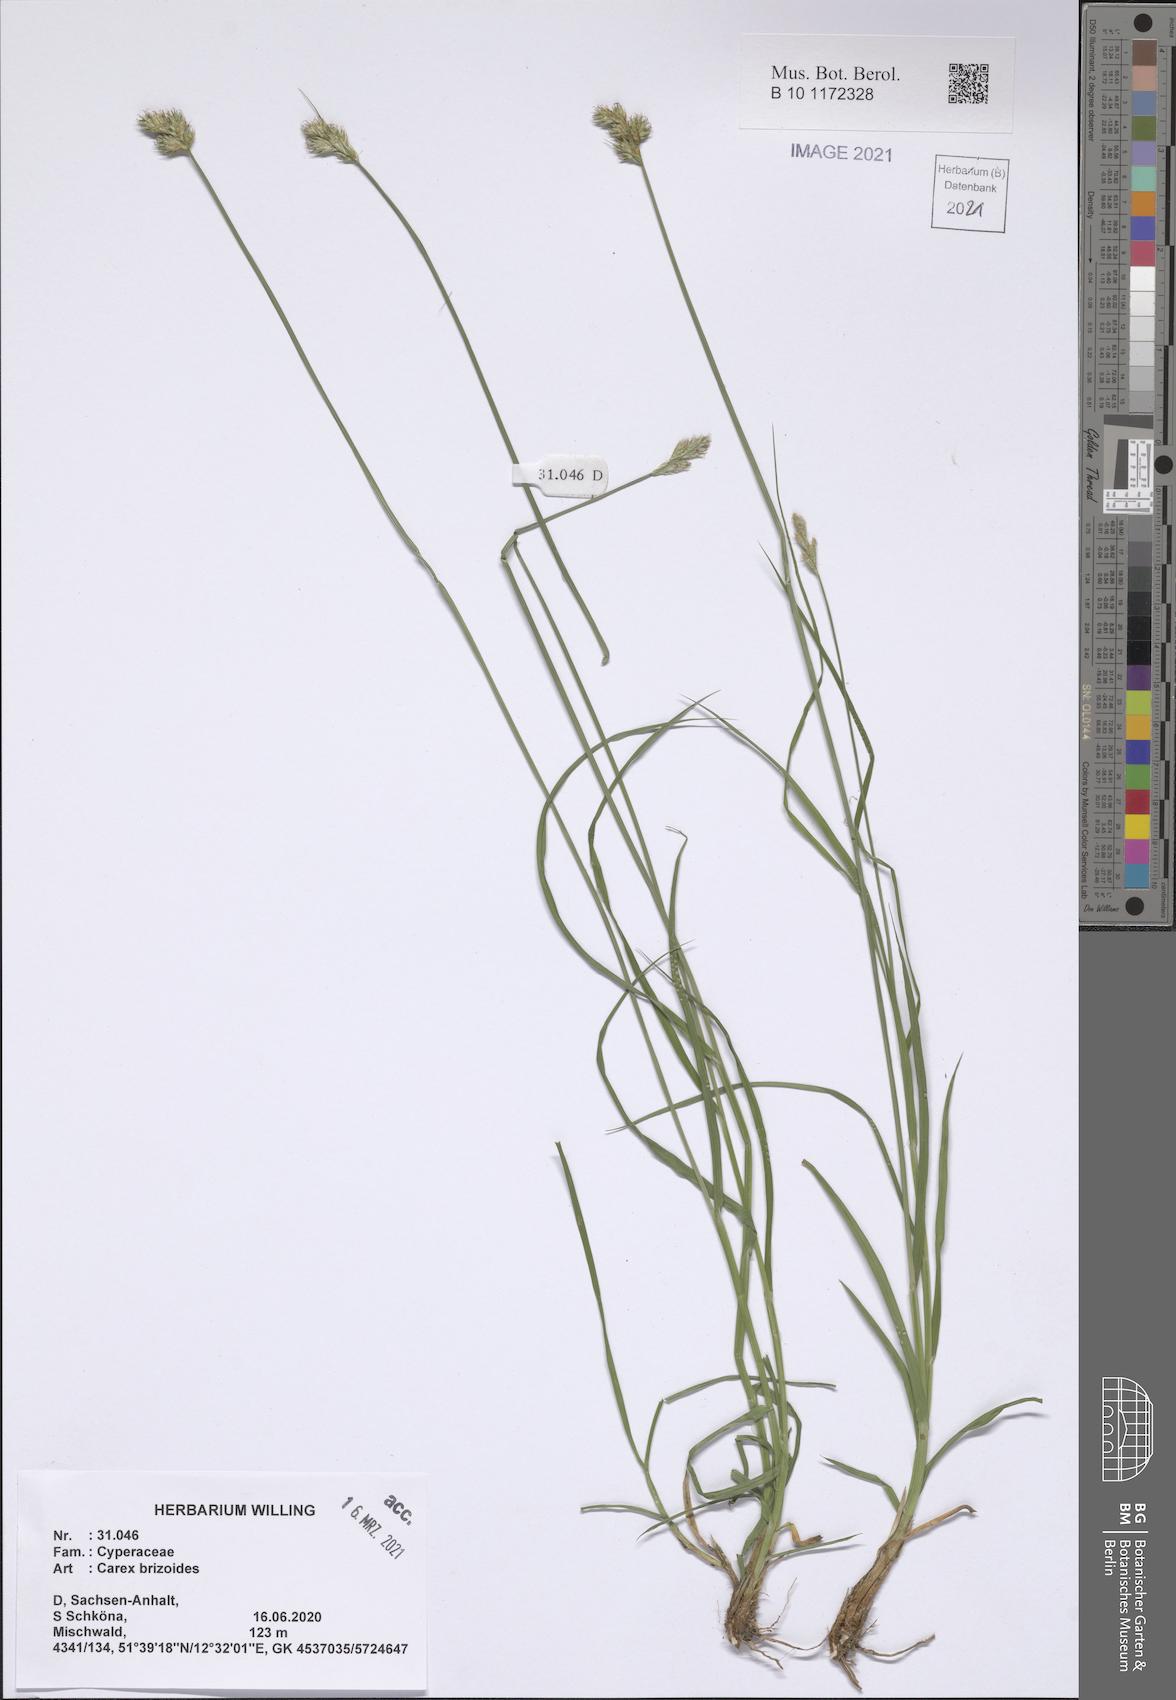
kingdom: Plantae
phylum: Tracheophyta
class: Liliopsida
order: Poales
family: Cyperaceae
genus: Carex
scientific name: Carex brizoides
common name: Quaking-grass sedge
